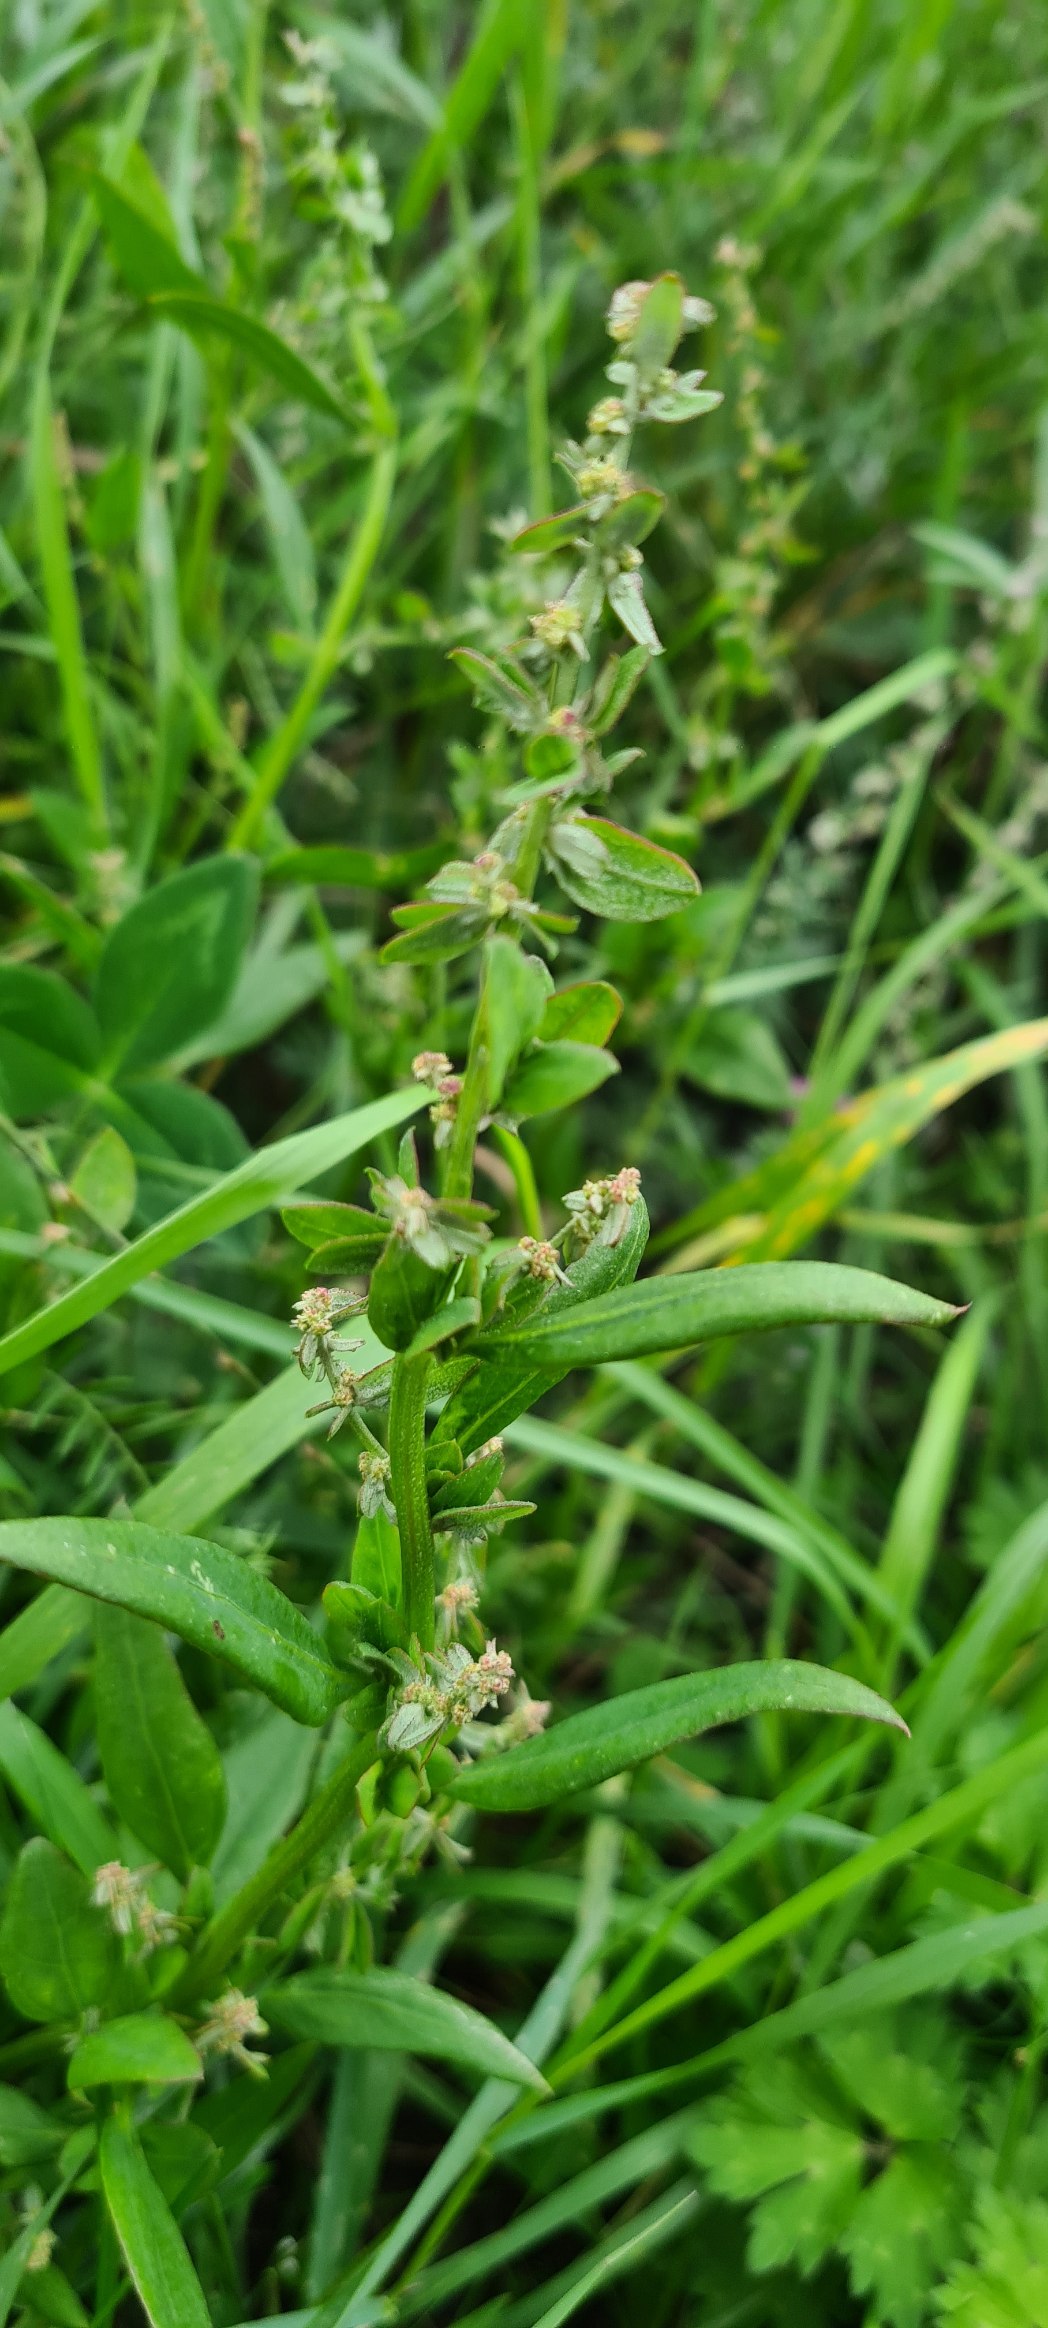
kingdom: Plantae
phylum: Tracheophyta
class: Magnoliopsida
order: Caryophyllales
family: Amaranthaceae
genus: Atriplex
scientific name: Atriplex patula
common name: Svine-mælde
